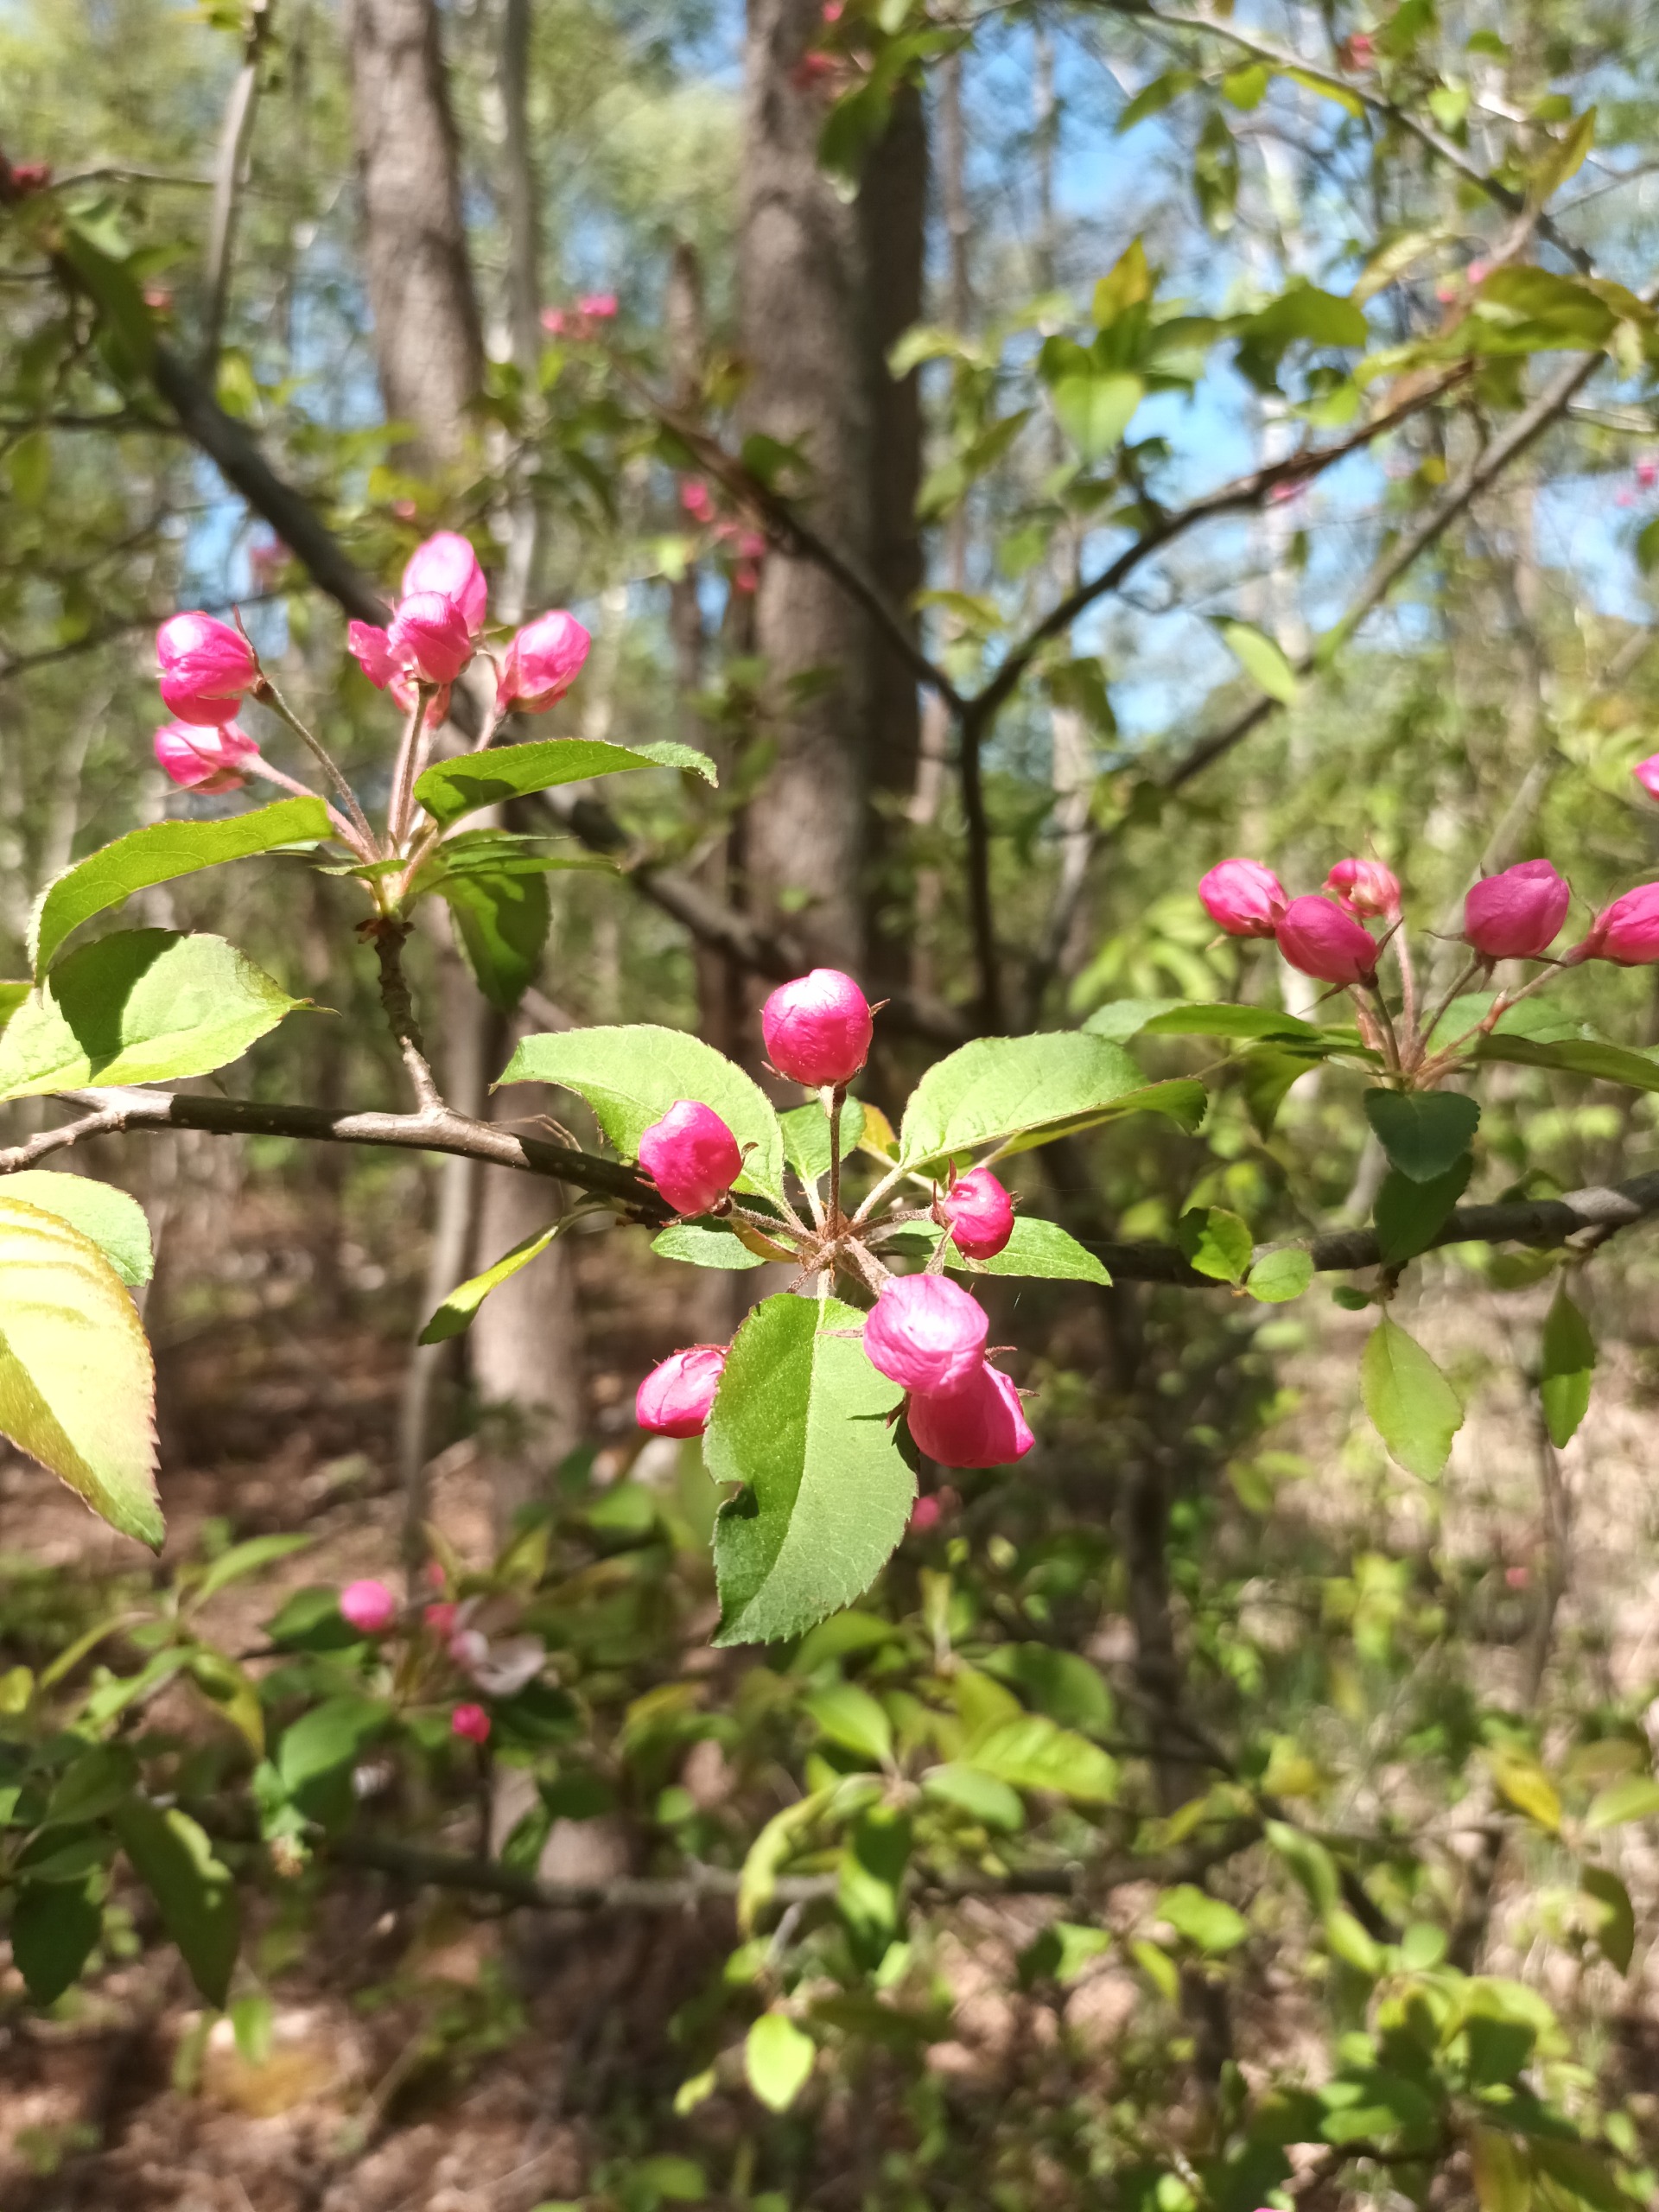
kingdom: Plantae
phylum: Tracheophyta
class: Magnoliopsida
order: Rosales
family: Rosaceae
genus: Malus
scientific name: Malus floribunda
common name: Japansk paradisæble
